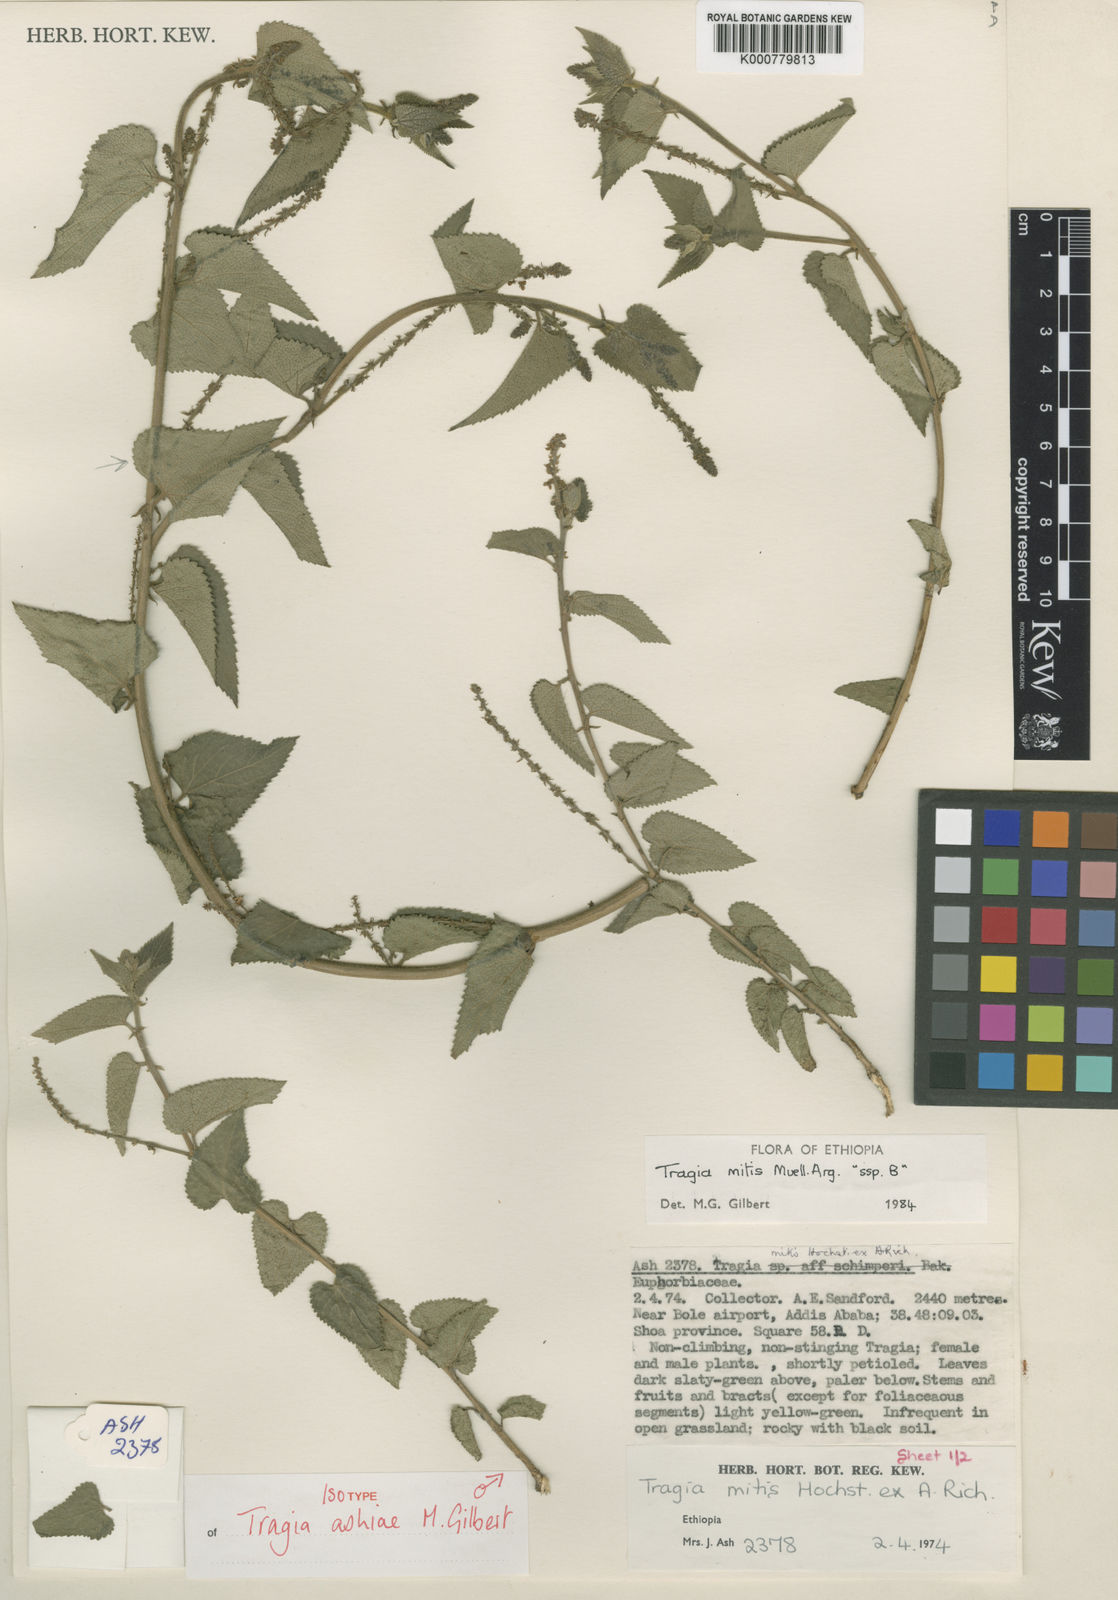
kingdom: Plantae
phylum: Tracheophyta
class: Magnoliopsida
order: Malpighiales
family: Euphorbiaceae
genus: Tragia
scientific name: Tragia ashiae
